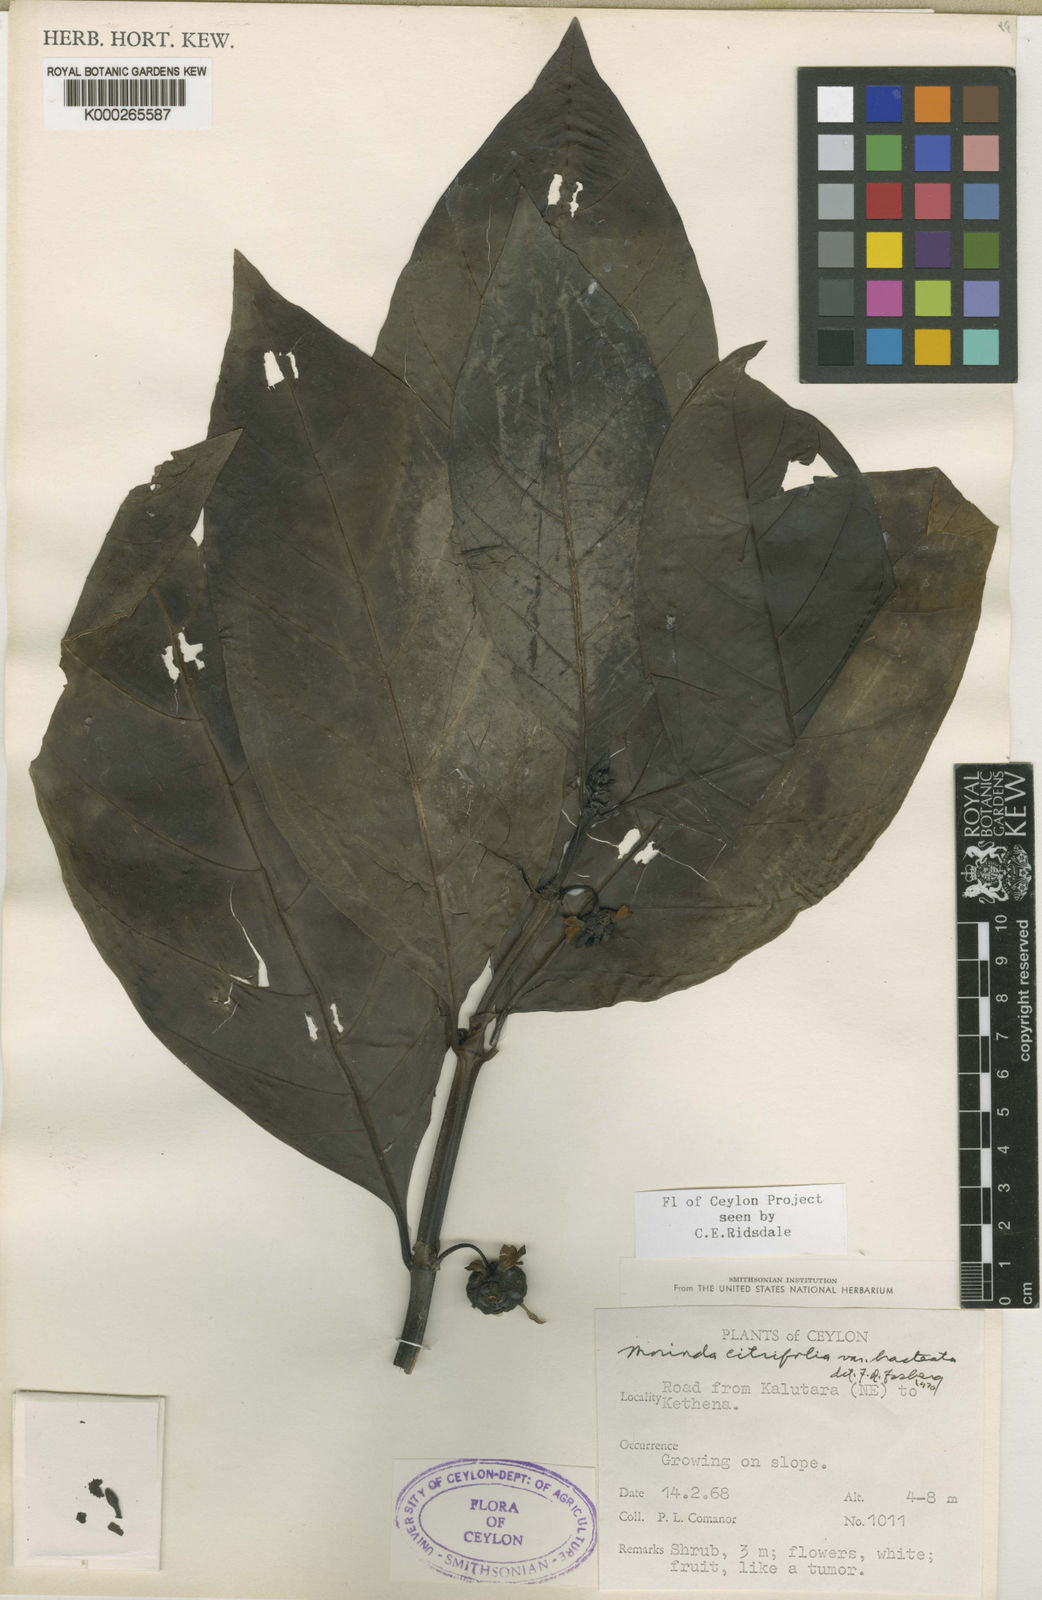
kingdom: Plantae
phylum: Tracheophyta
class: Magnoliopsida
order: Gentianales
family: Rubiaceae
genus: Morinda
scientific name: Morinda citrifolia
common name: Indian-mulberry
